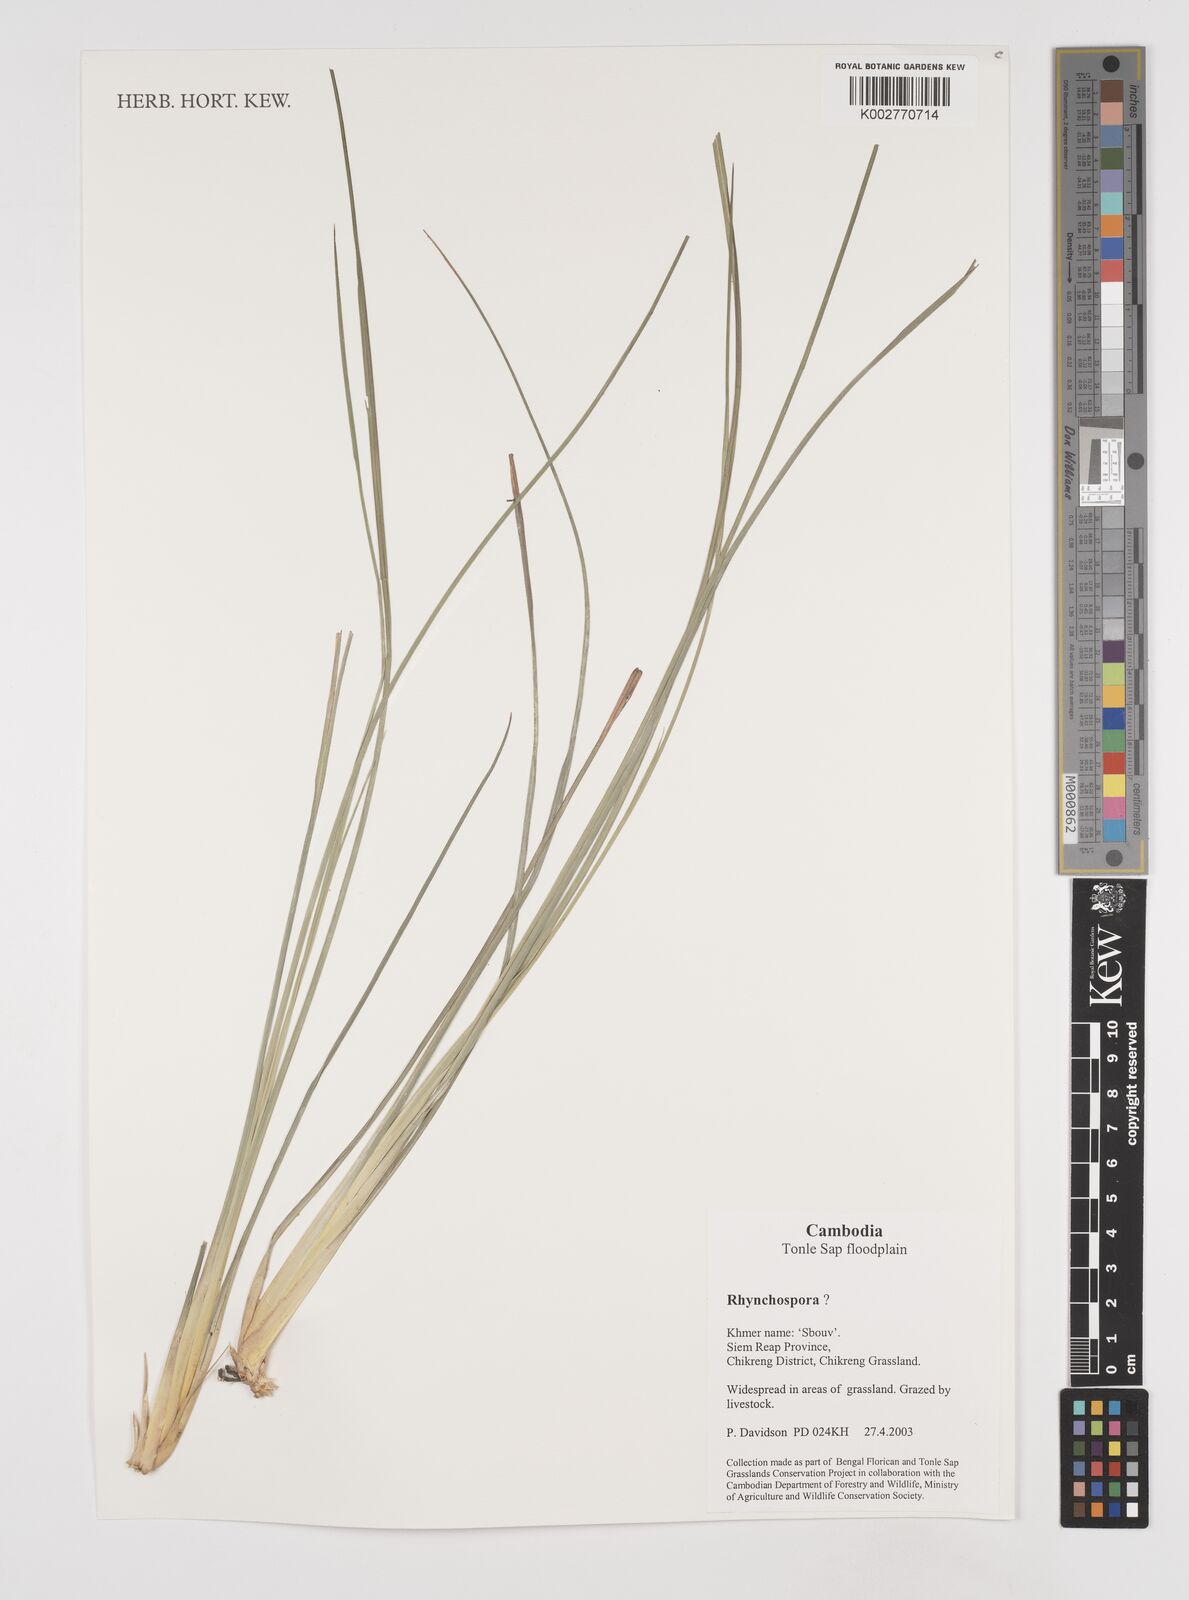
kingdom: Plantae
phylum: Tracheophyta
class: Liliopsida
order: Poales
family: Cyperaceae
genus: Rhynchospora
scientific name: Rhynchospora
